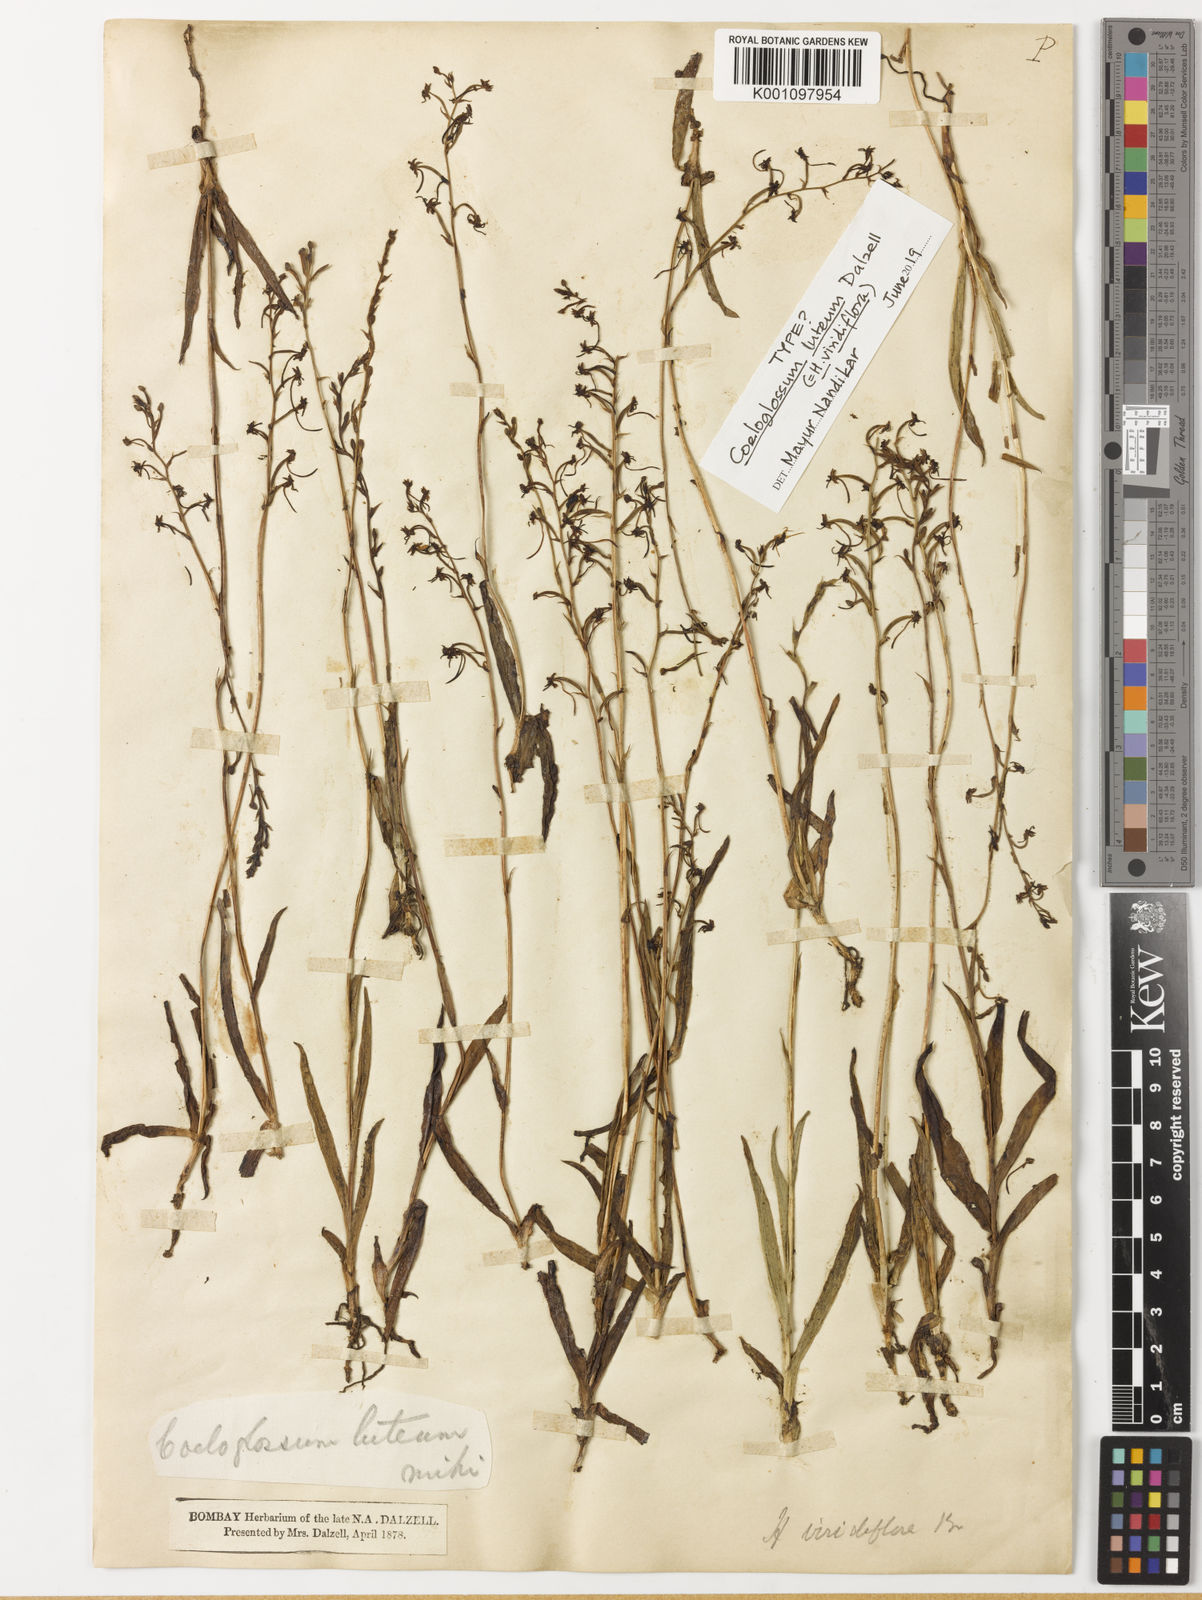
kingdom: Plantae
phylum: Tracheophyta
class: Liliopsida
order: Asparagales
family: Orchidaceae
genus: Habenaria
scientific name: Habenaria viridiflora
